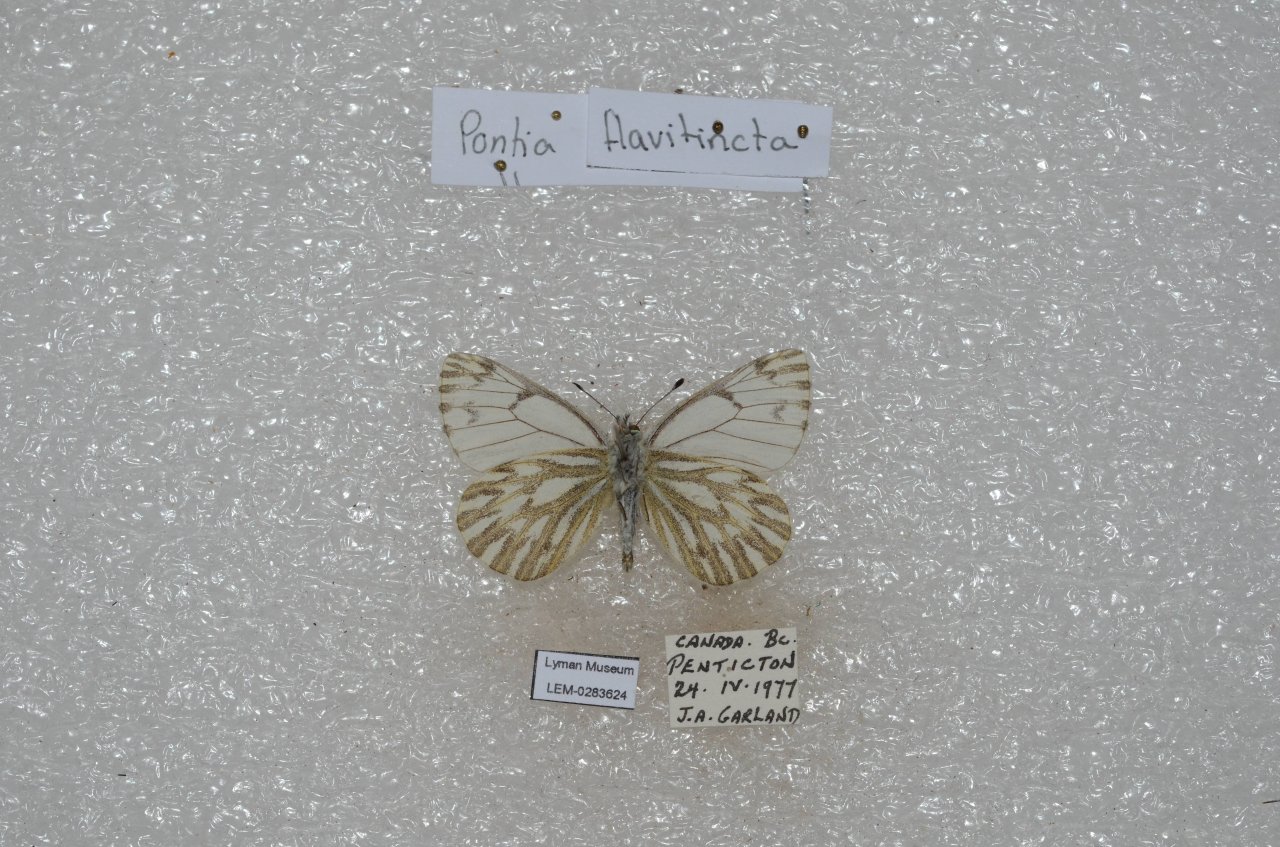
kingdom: Animalia
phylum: Arthropoda
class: Insecta
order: Lepidoptera
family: Pieridae
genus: Pontia
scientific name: Pontia sisymbrii
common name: Spring White
